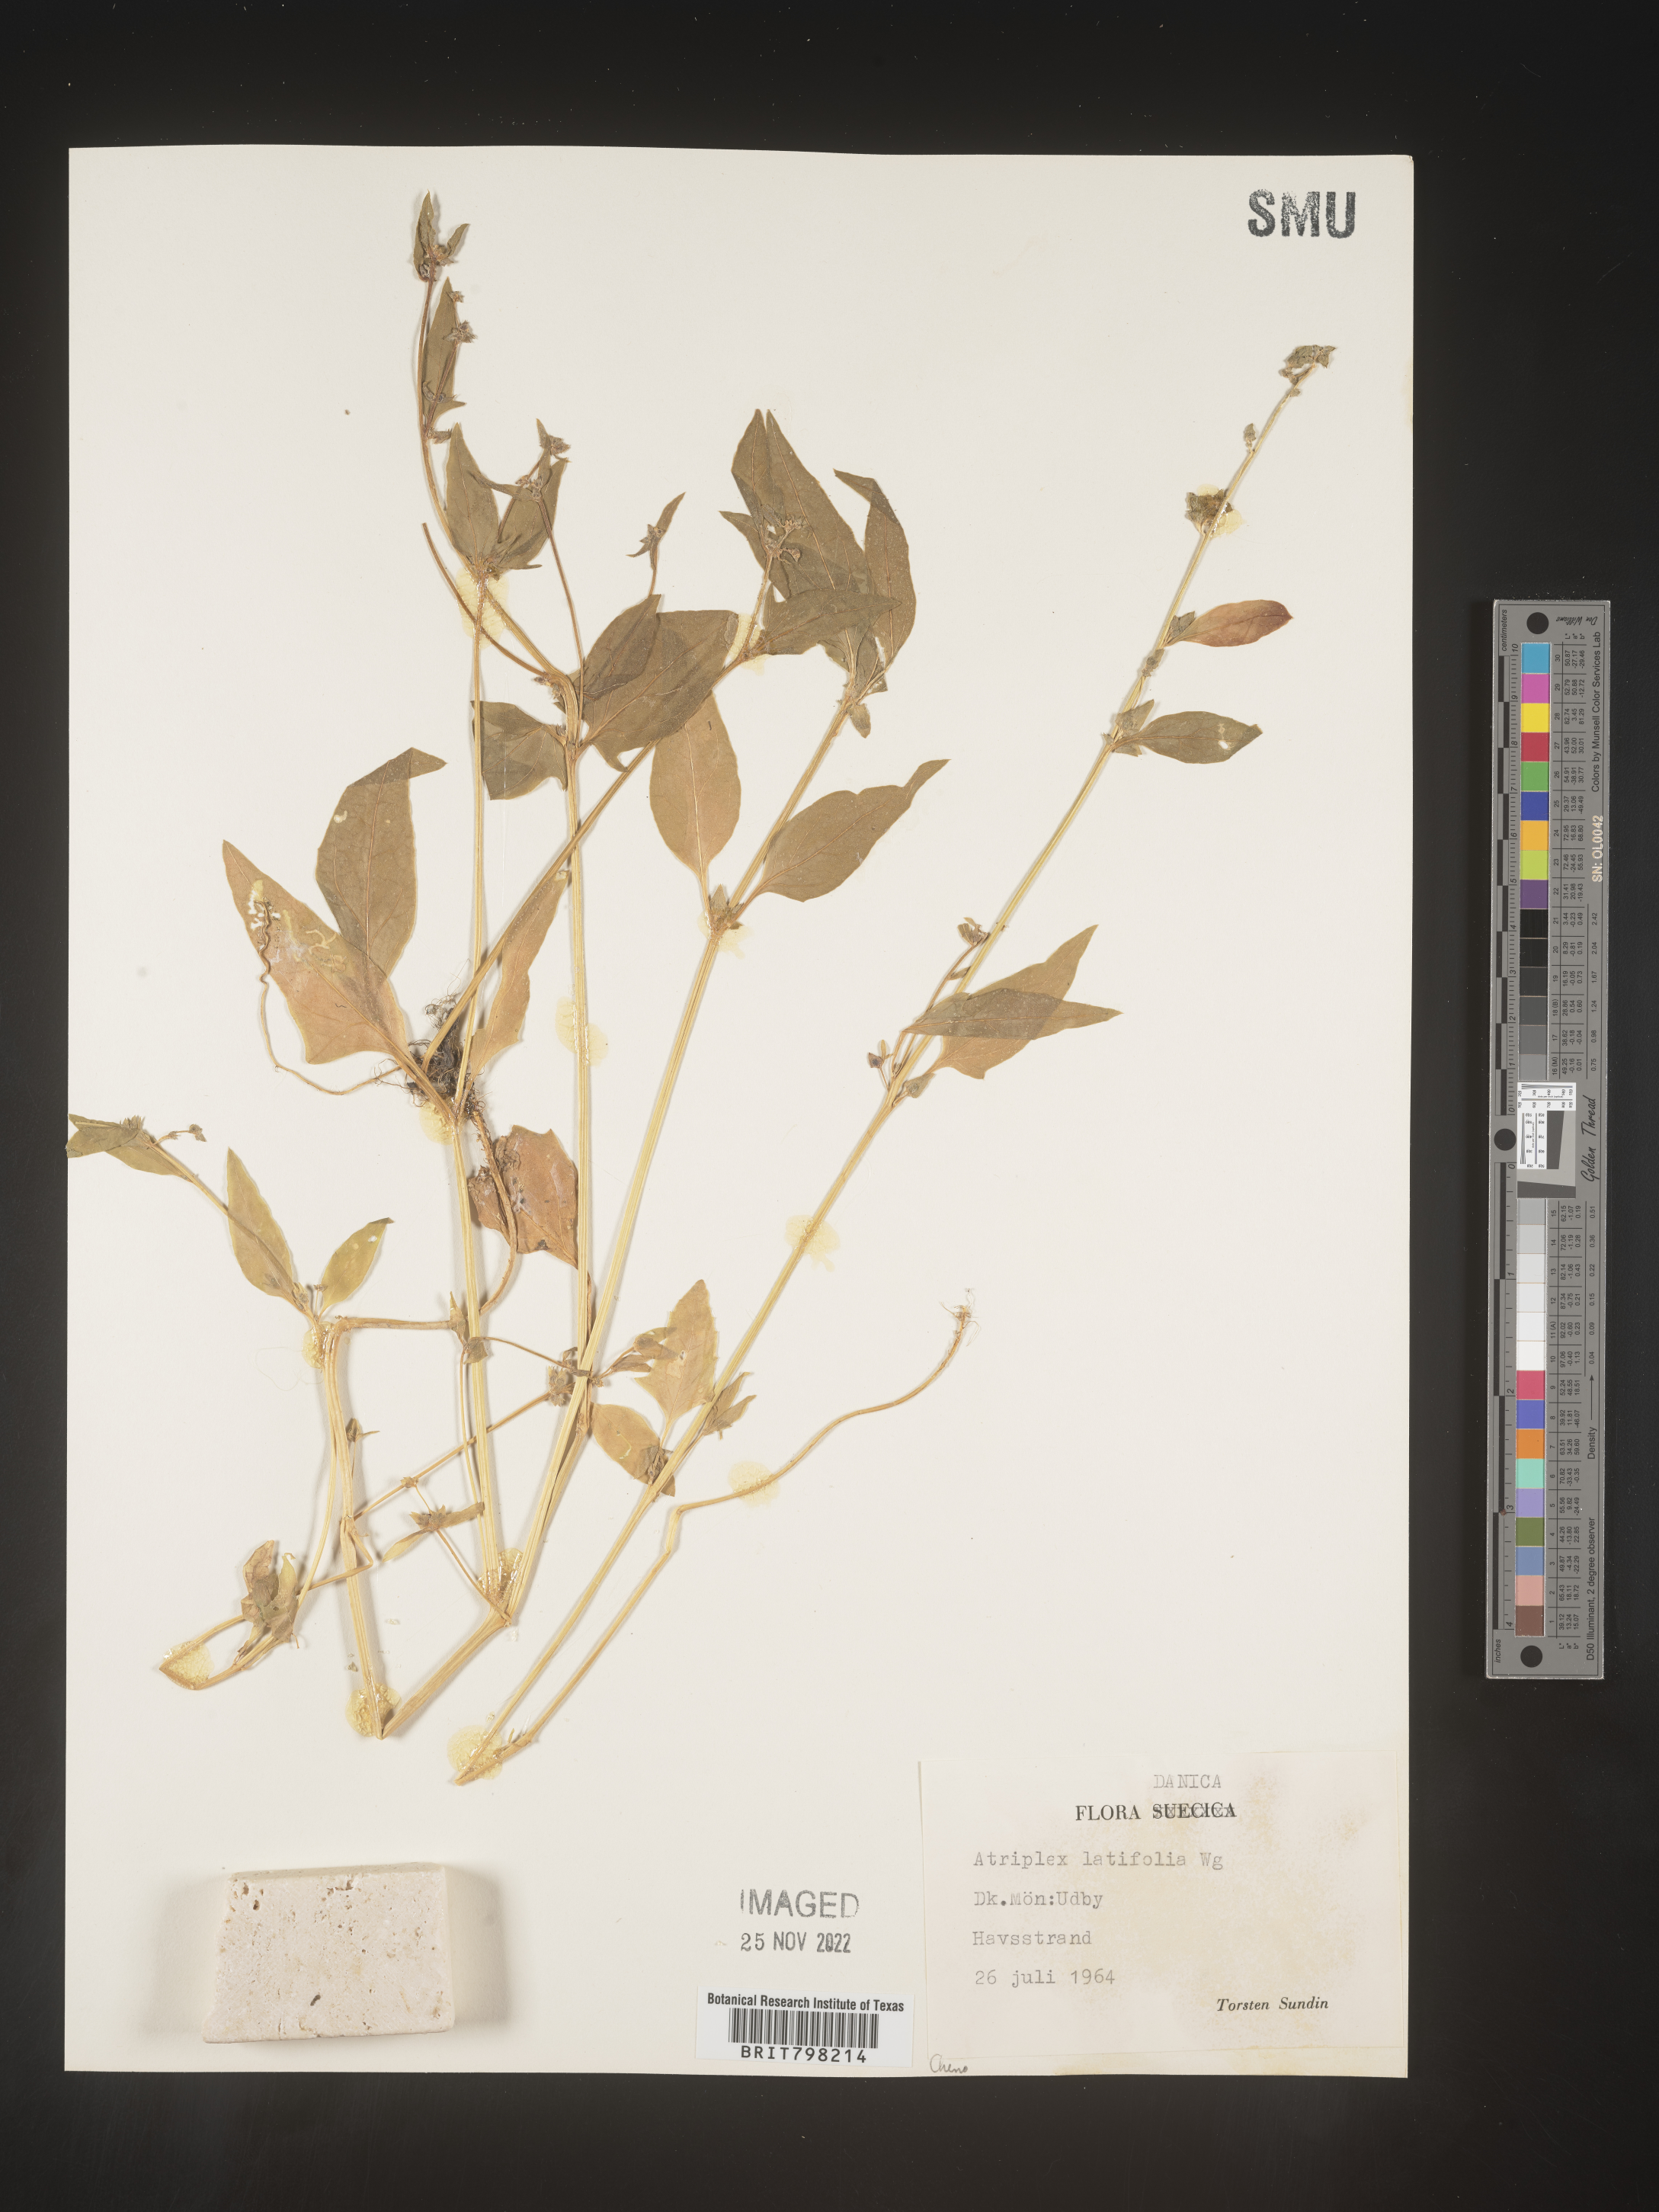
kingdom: Plantae
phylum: Tracheophyta
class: Magnoliopsida
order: Caryophyllales
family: Amaranthaceae
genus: Atriplex
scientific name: Atriplex
